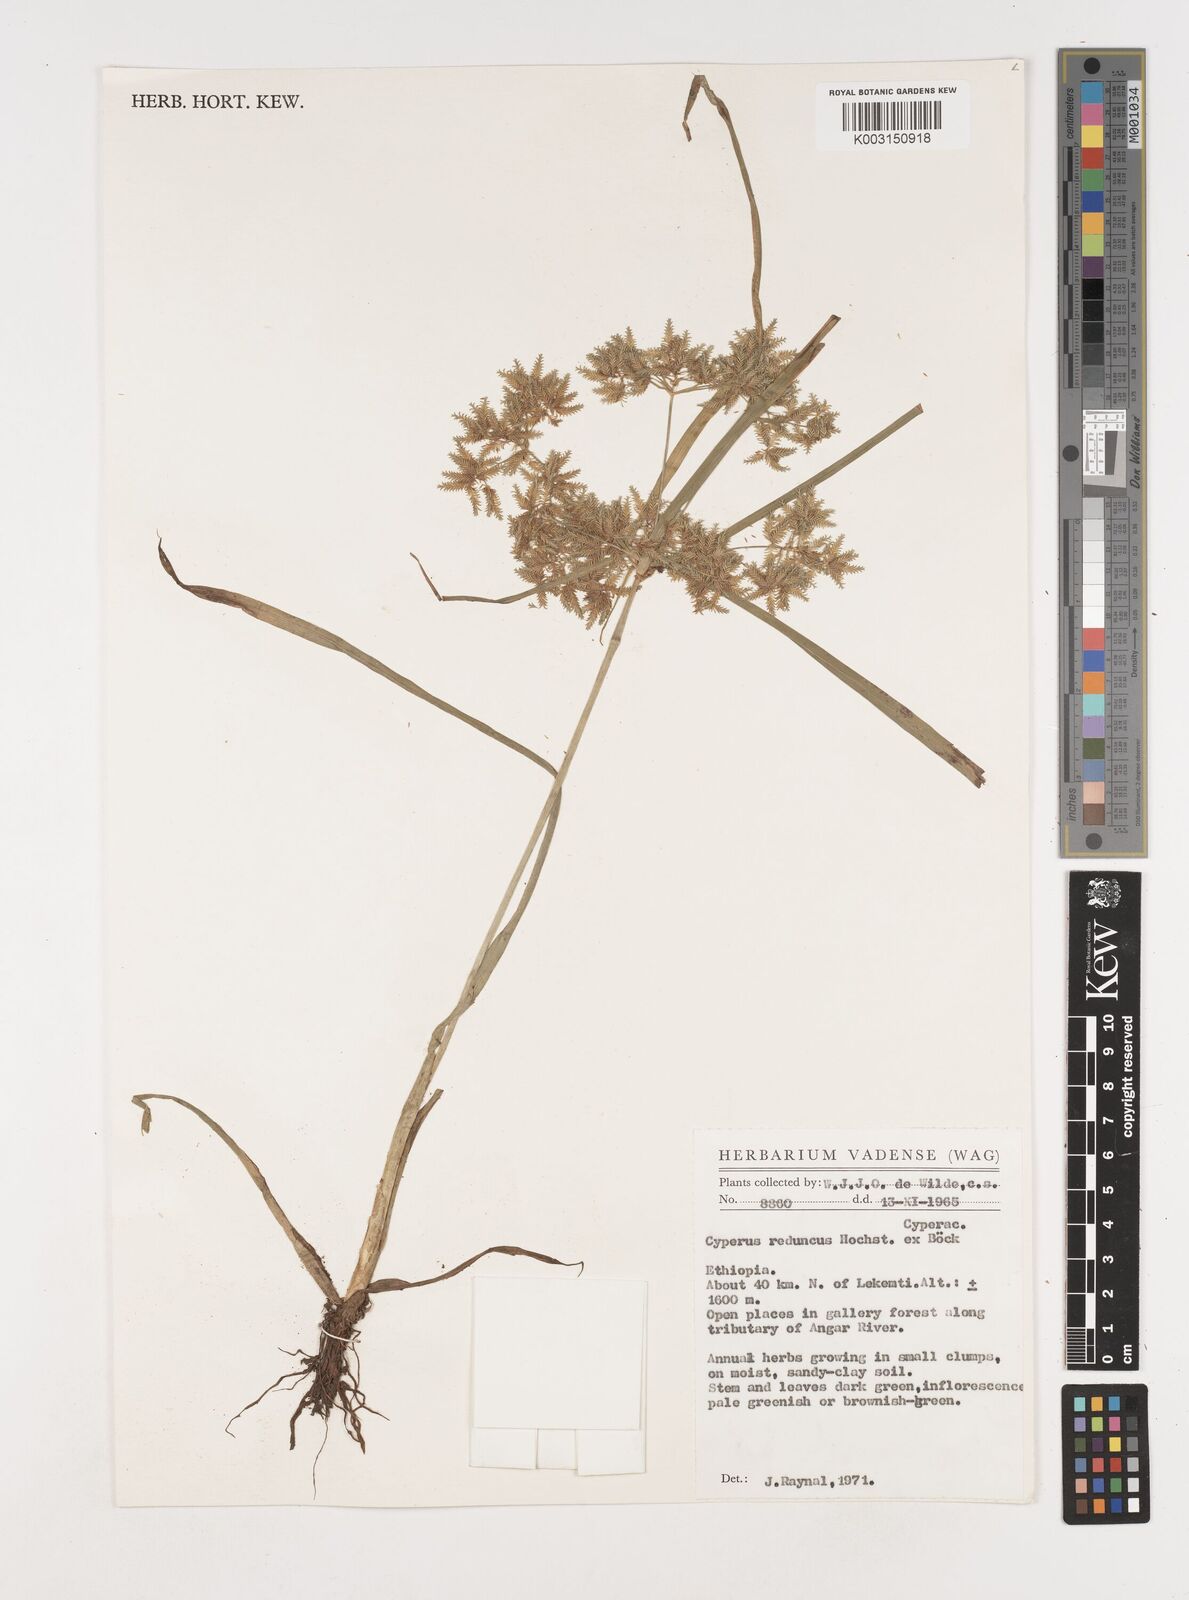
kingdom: Plantae
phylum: Tracheophyta
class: Liliopsida
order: Poales
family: Cyperaceae
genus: Cyperus
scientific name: Cyperus reduncus
